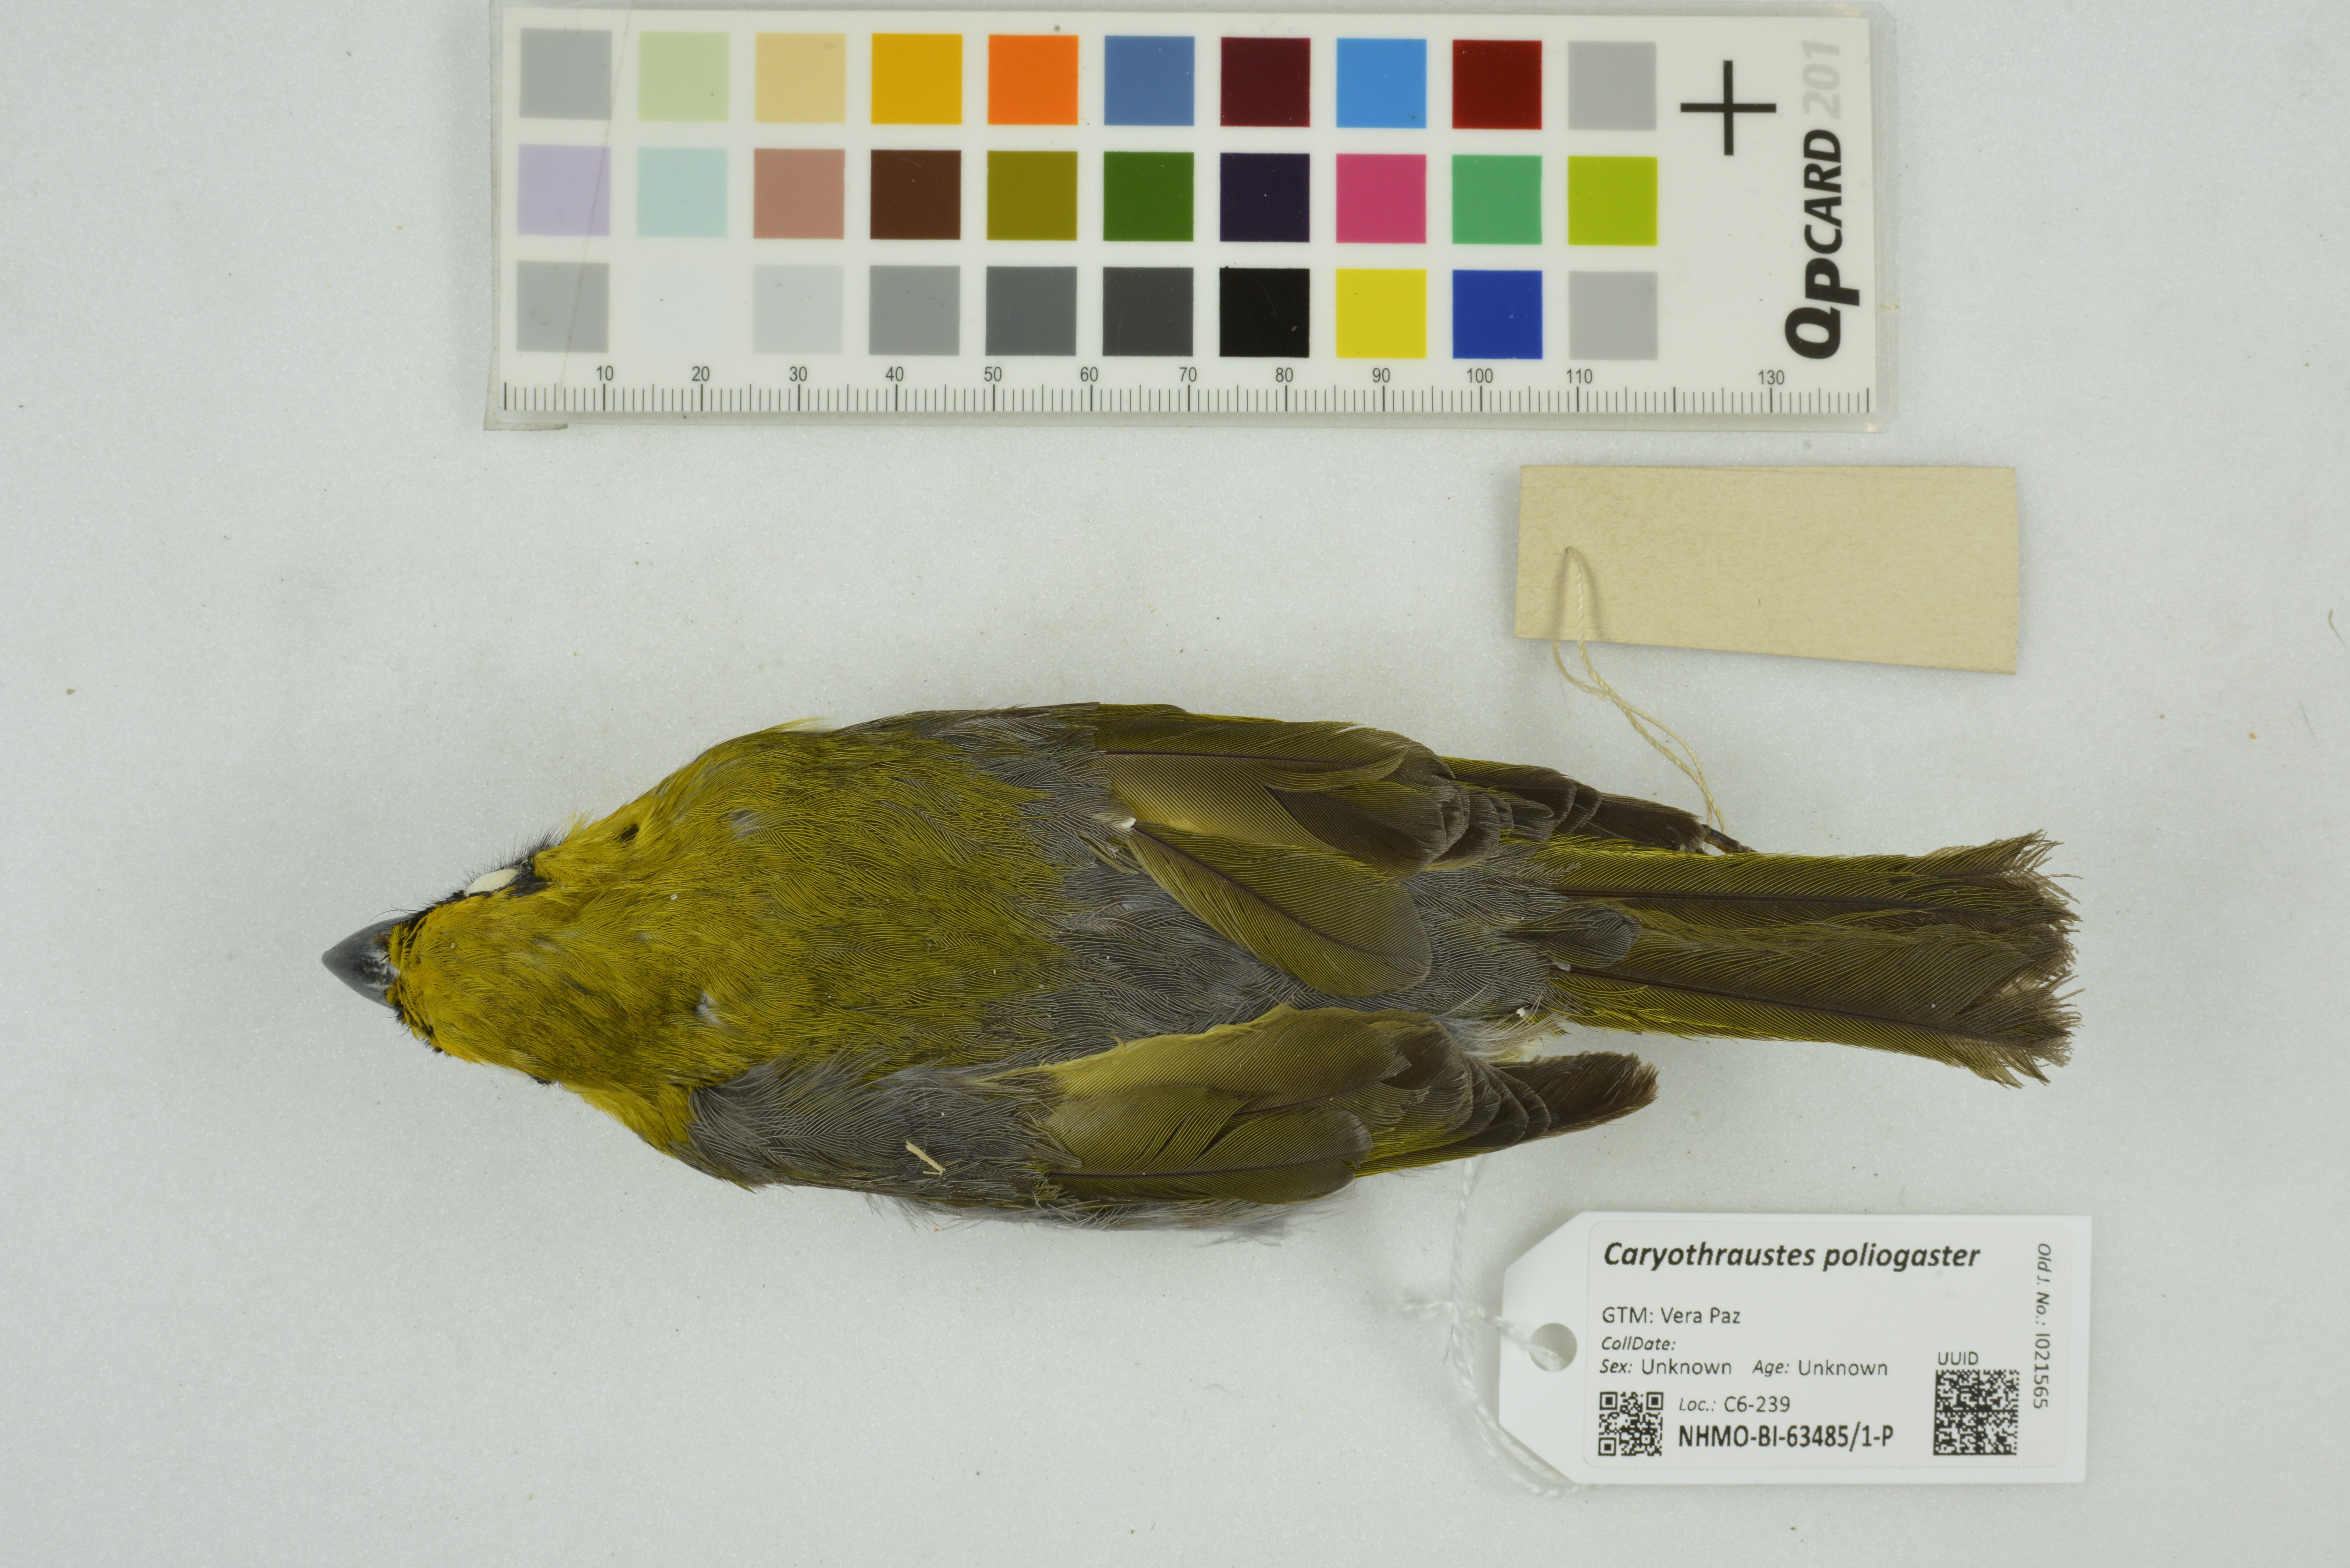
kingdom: Animalia
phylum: Chordata
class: Aves
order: Passeriformes
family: Cardinalidae
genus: Caryothraustes
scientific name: Caryothraustes poliogaster
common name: Black-faced grosbeak
